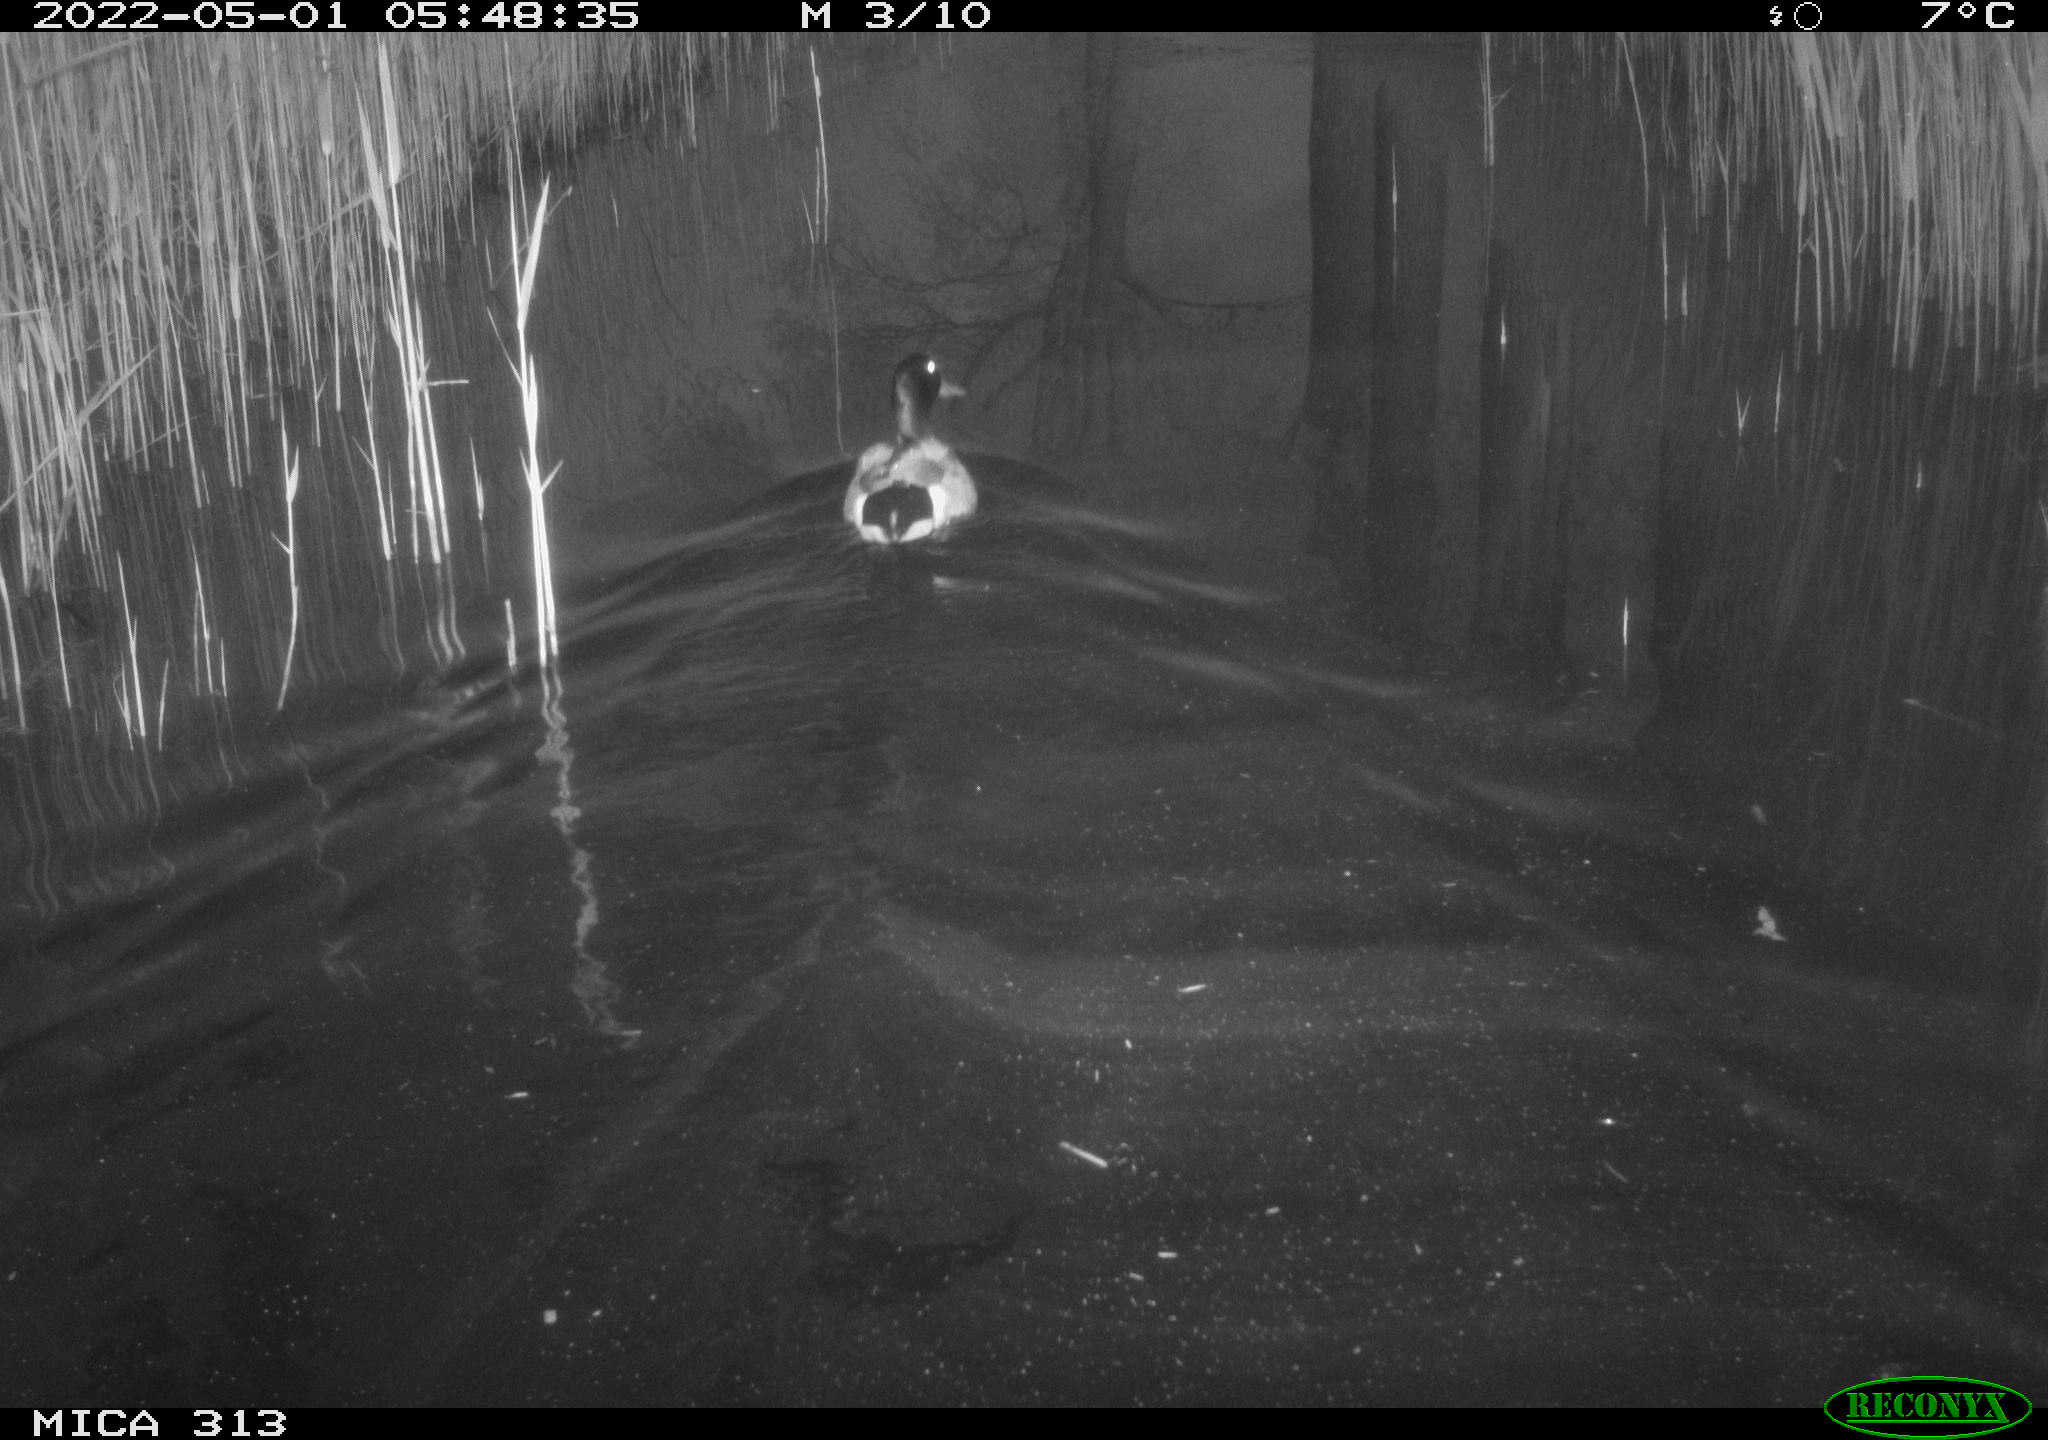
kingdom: Animalia
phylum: Chordata
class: Aves
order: Anseriformes
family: Anatidae
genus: Anas
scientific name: Anas platyrhynchos
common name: Mallard
